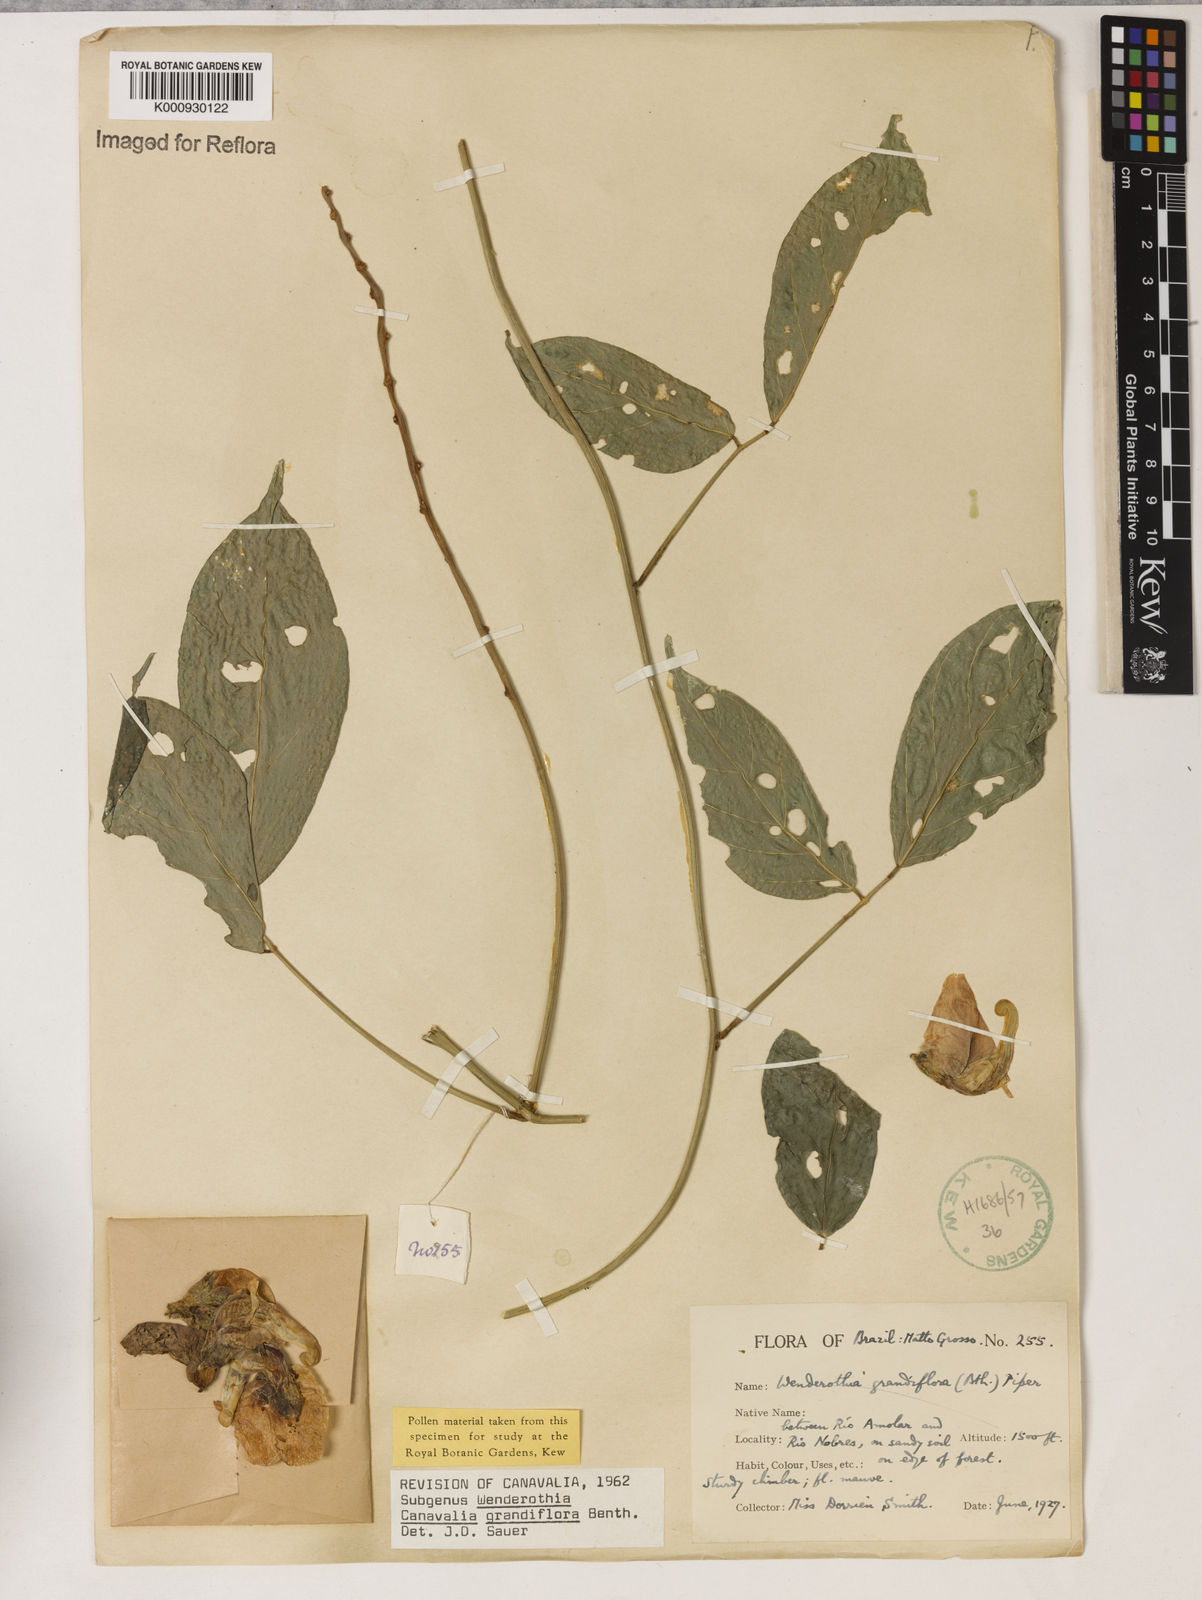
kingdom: Plantae
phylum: Tracheophyta
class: Magnoliopsida
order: Fabales
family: Fabaceae
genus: Canavalia
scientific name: Canavalia grandiflora
